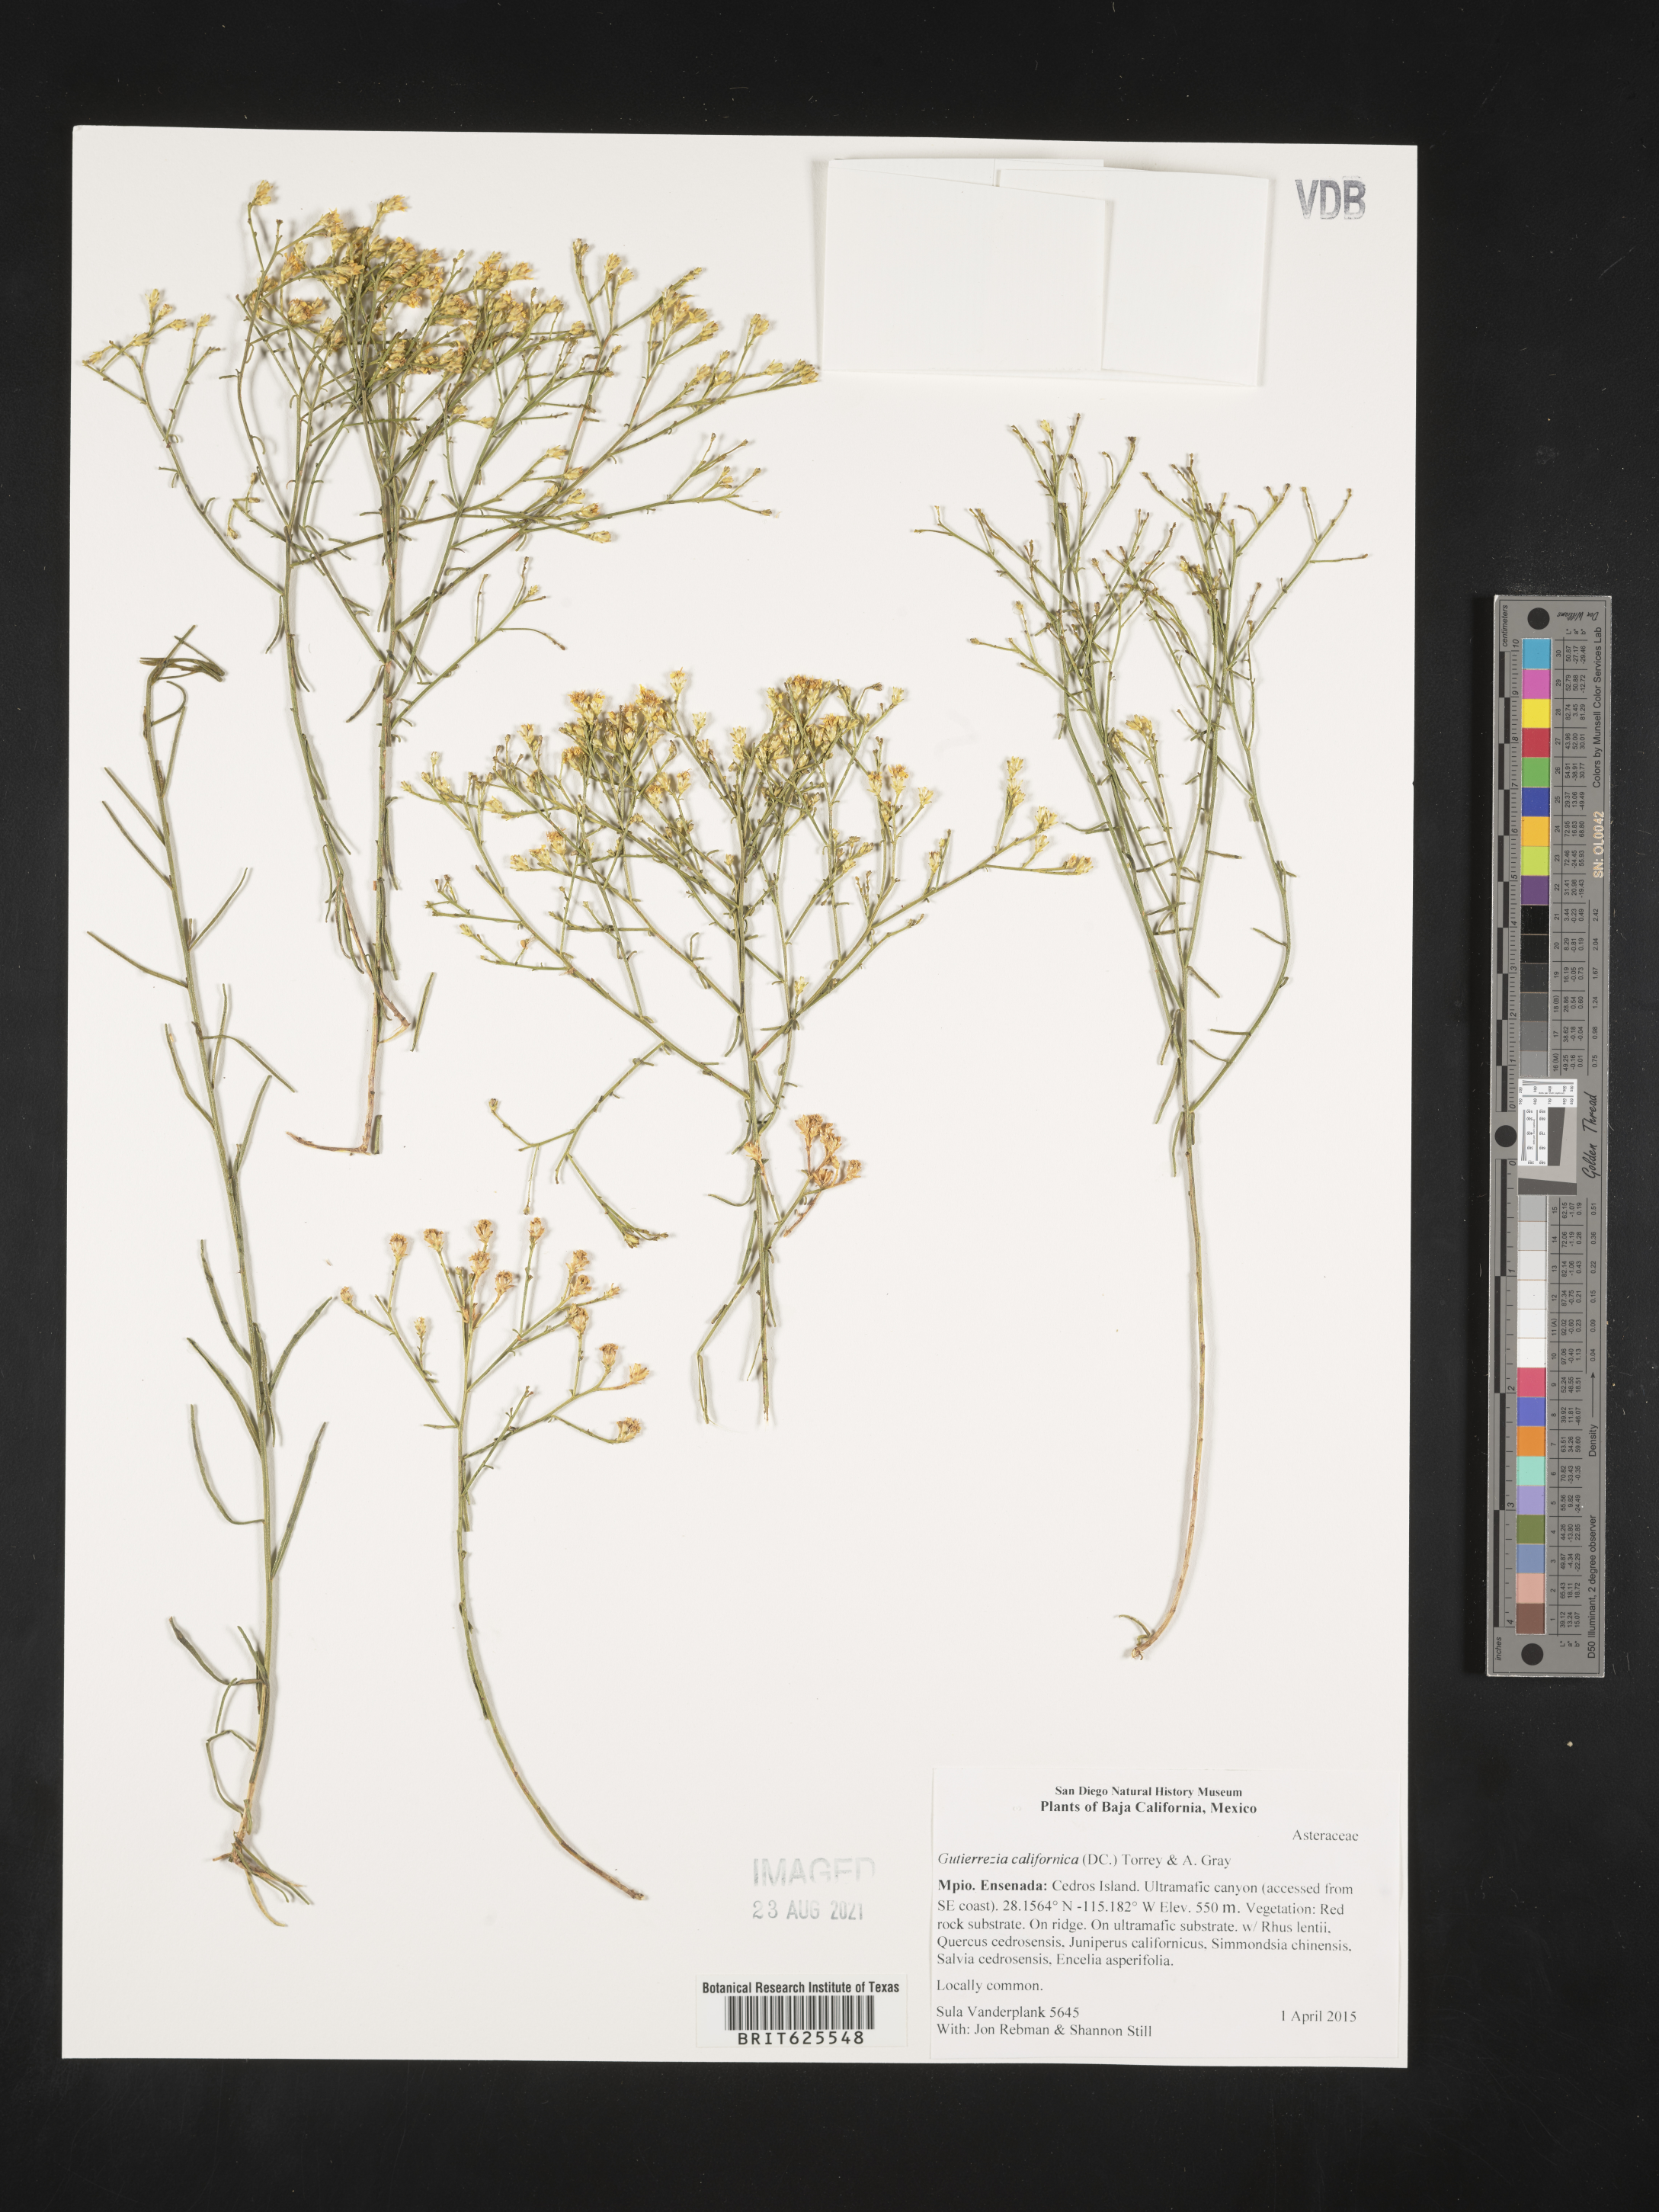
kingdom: Plantae
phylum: Tracheophyta
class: Magnoliopsida
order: Asterales
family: Asteraceae
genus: Gutierrezia
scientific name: Gutierrezia
